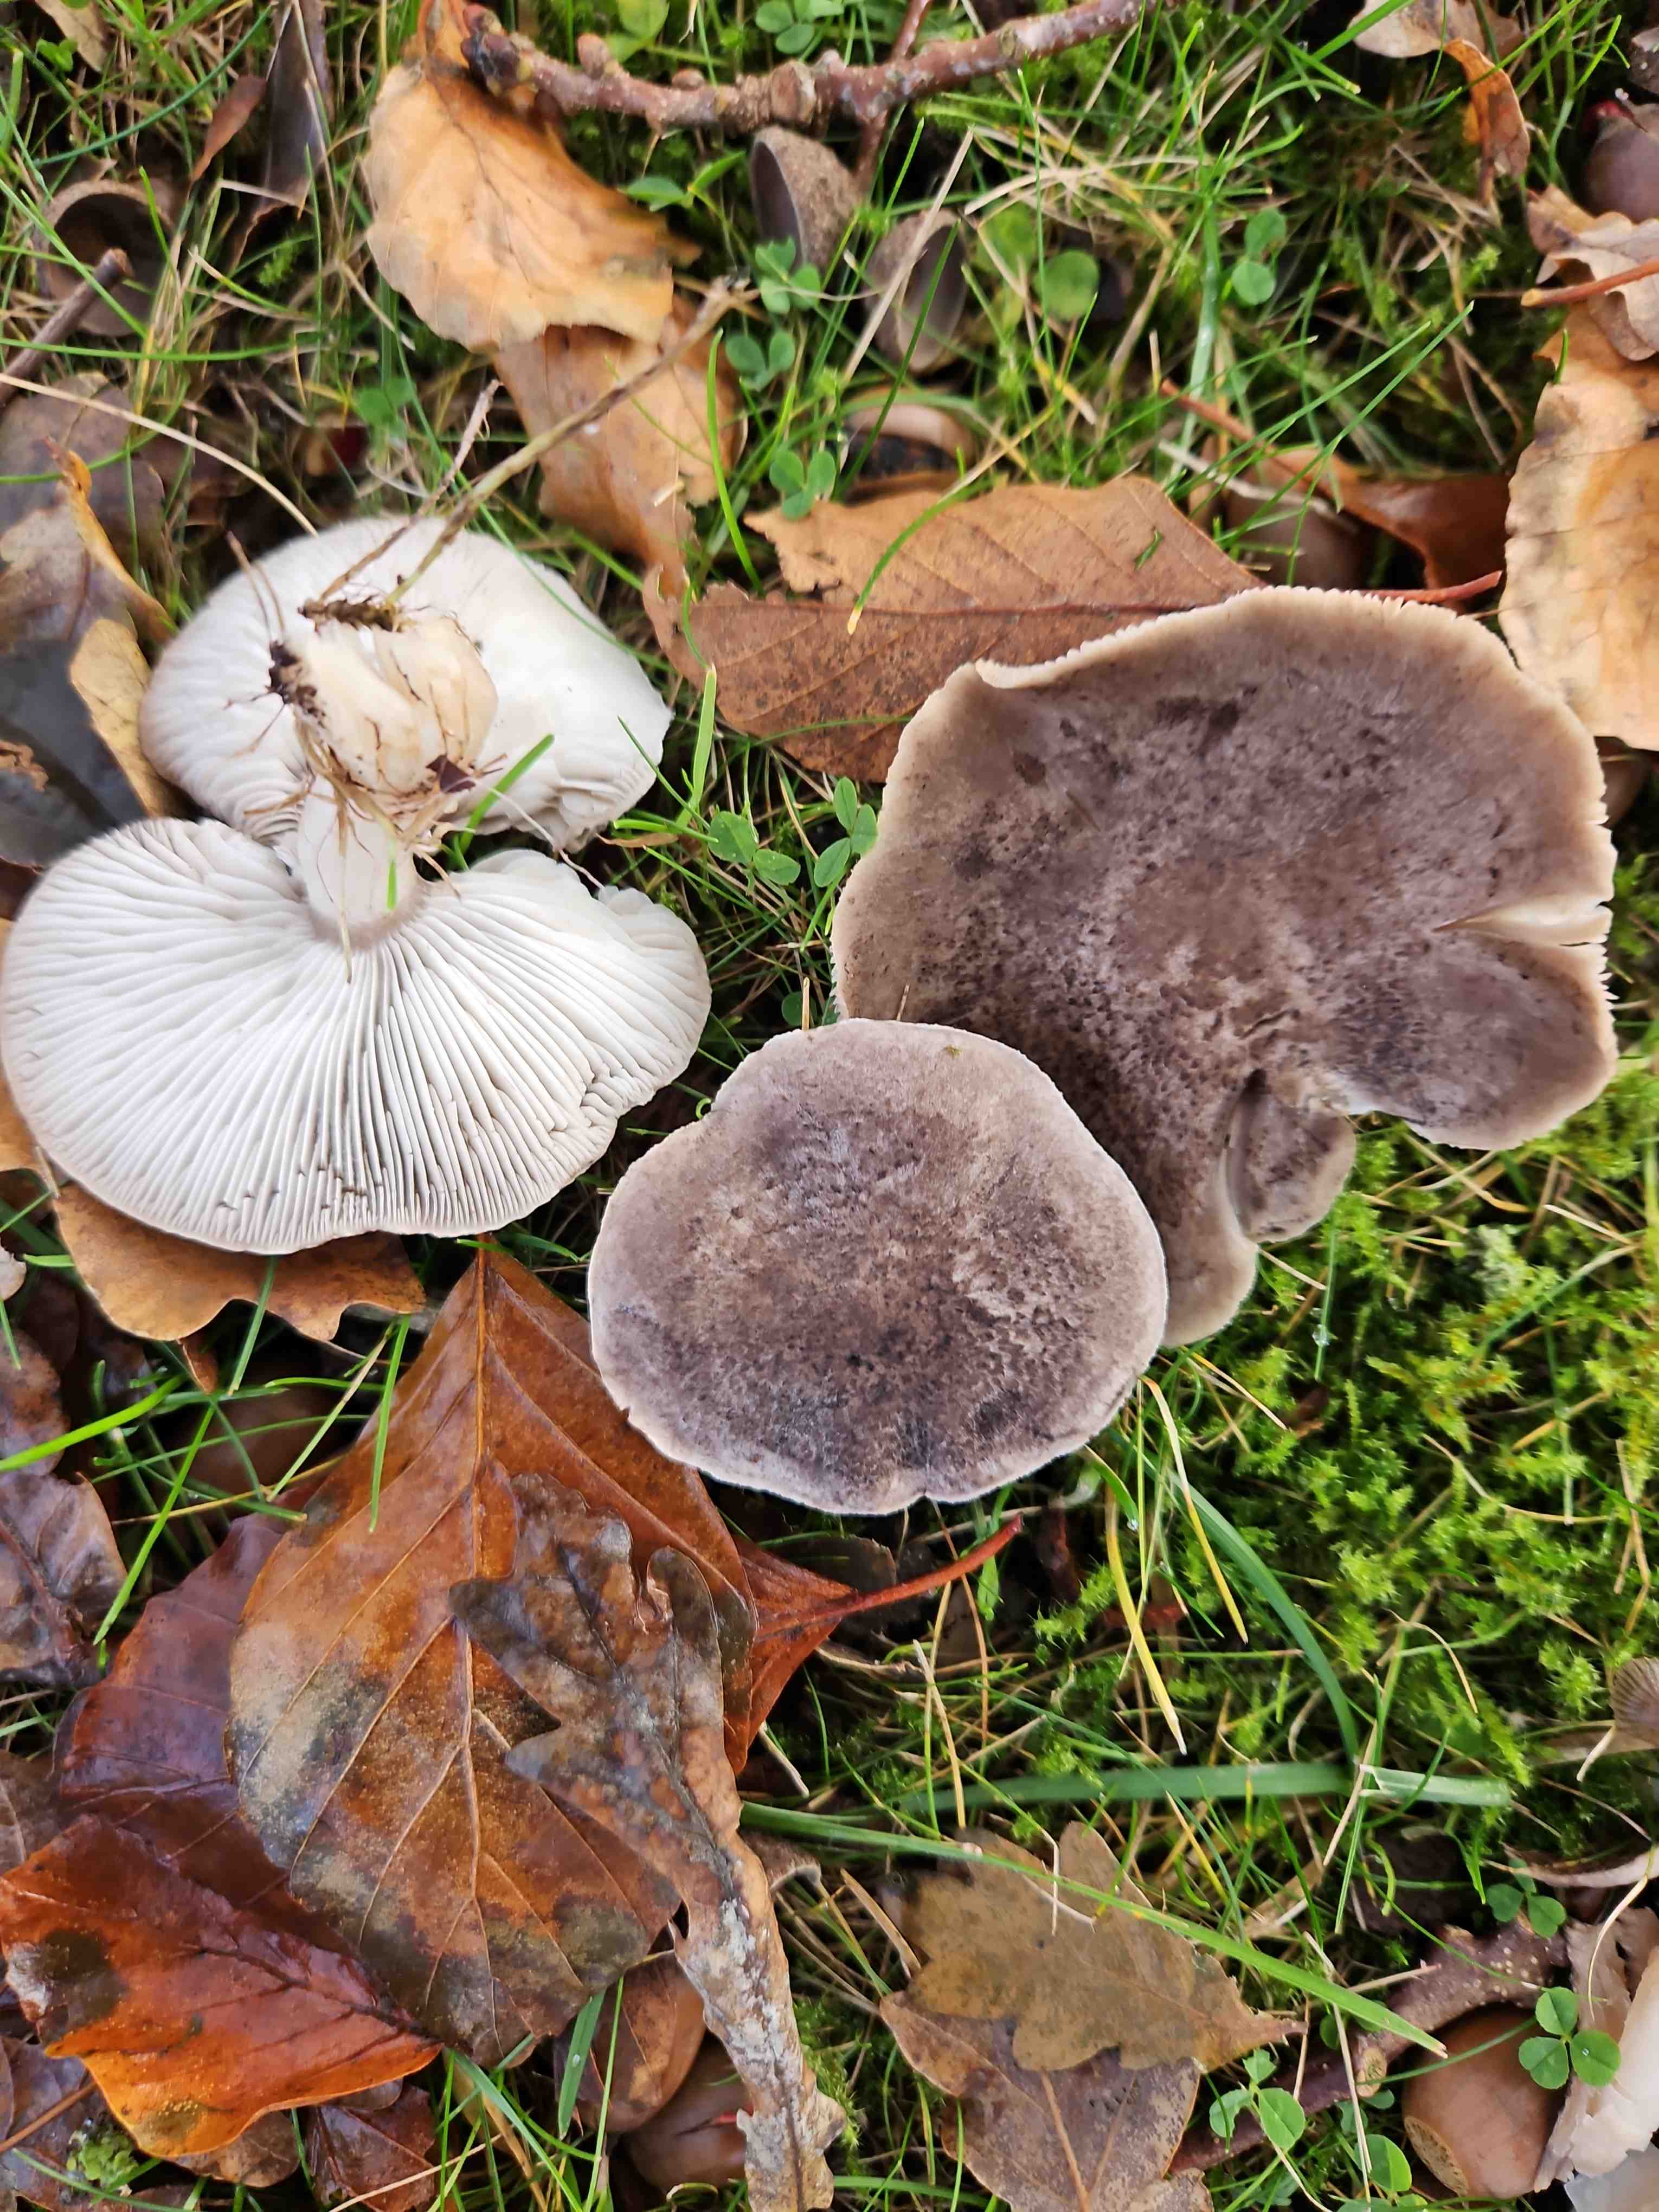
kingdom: Fungi
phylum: Basidiomycota
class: Agaricomycetes
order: Agaricales
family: Tricholomataceae
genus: Tricholoma
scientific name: Tricholoma scalpturatum
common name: gulplettet ridderhat
